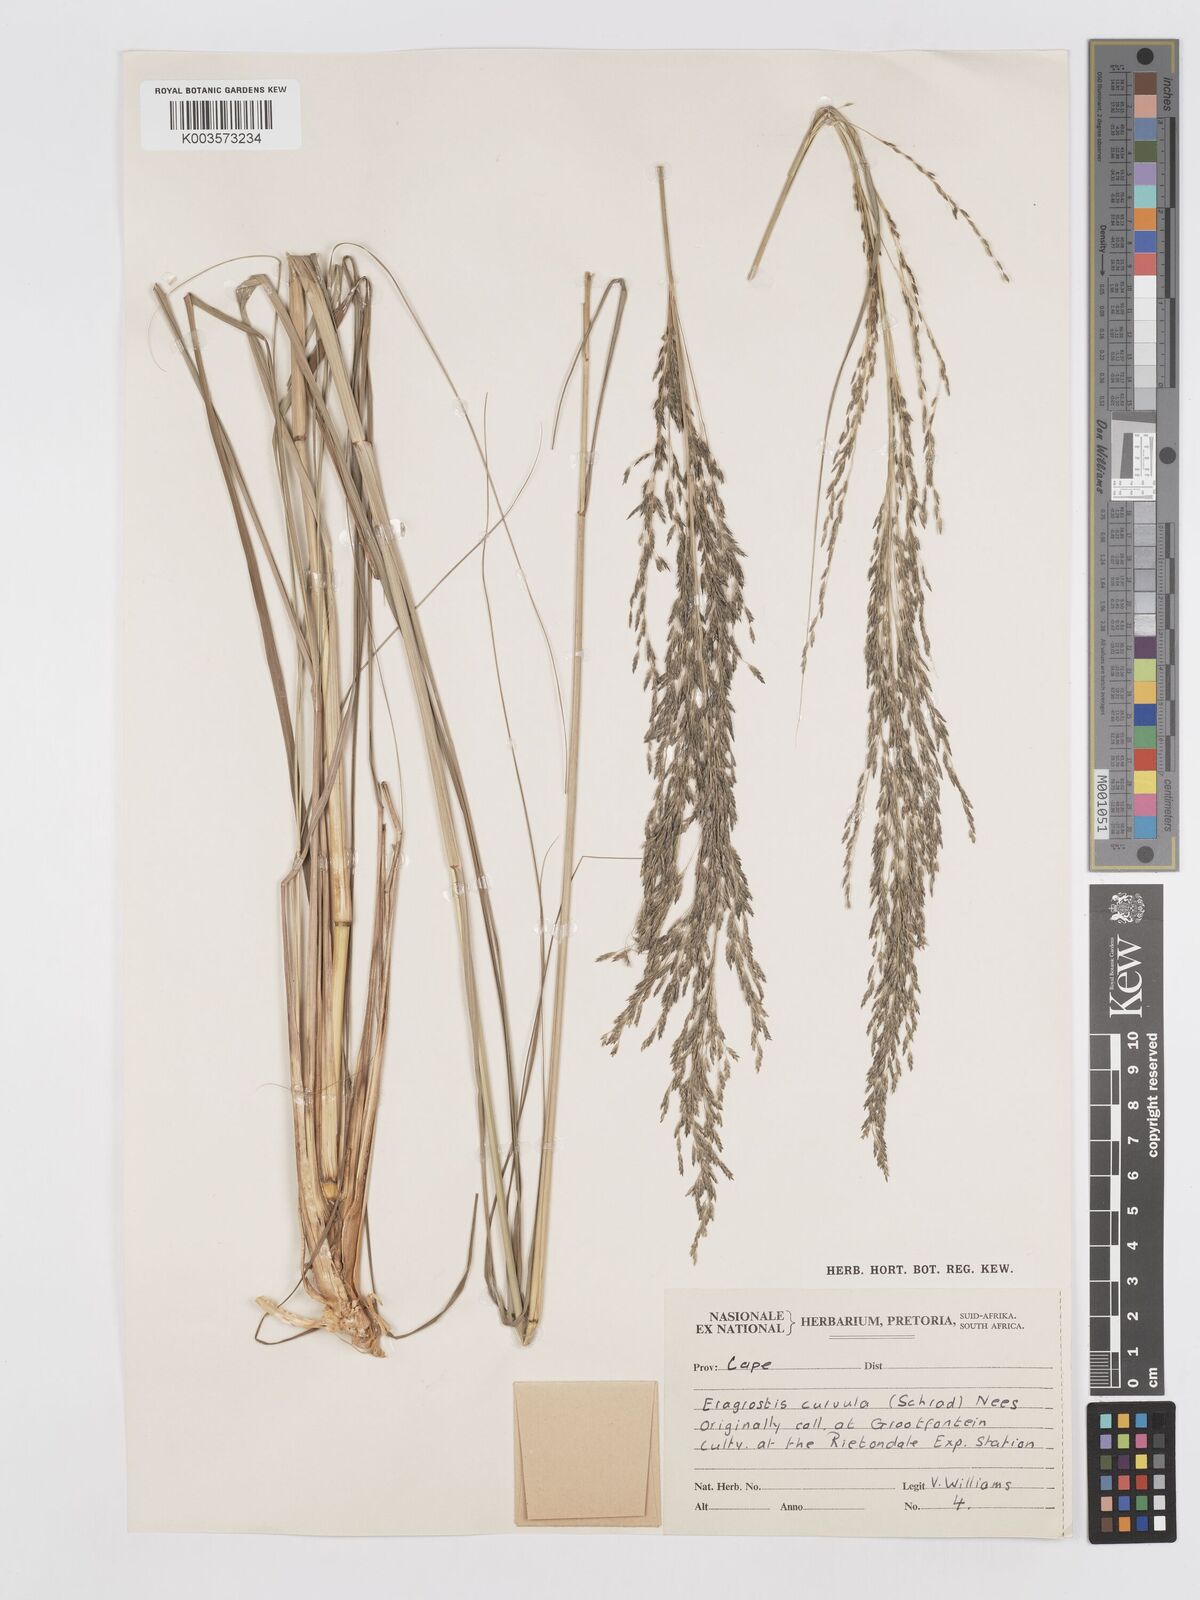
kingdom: Plantae
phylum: Tracheophyta
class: Liliopsida
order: Poales
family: Poaceae
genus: Eragrostis
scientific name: Eragrostis curvula
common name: African love-grass
